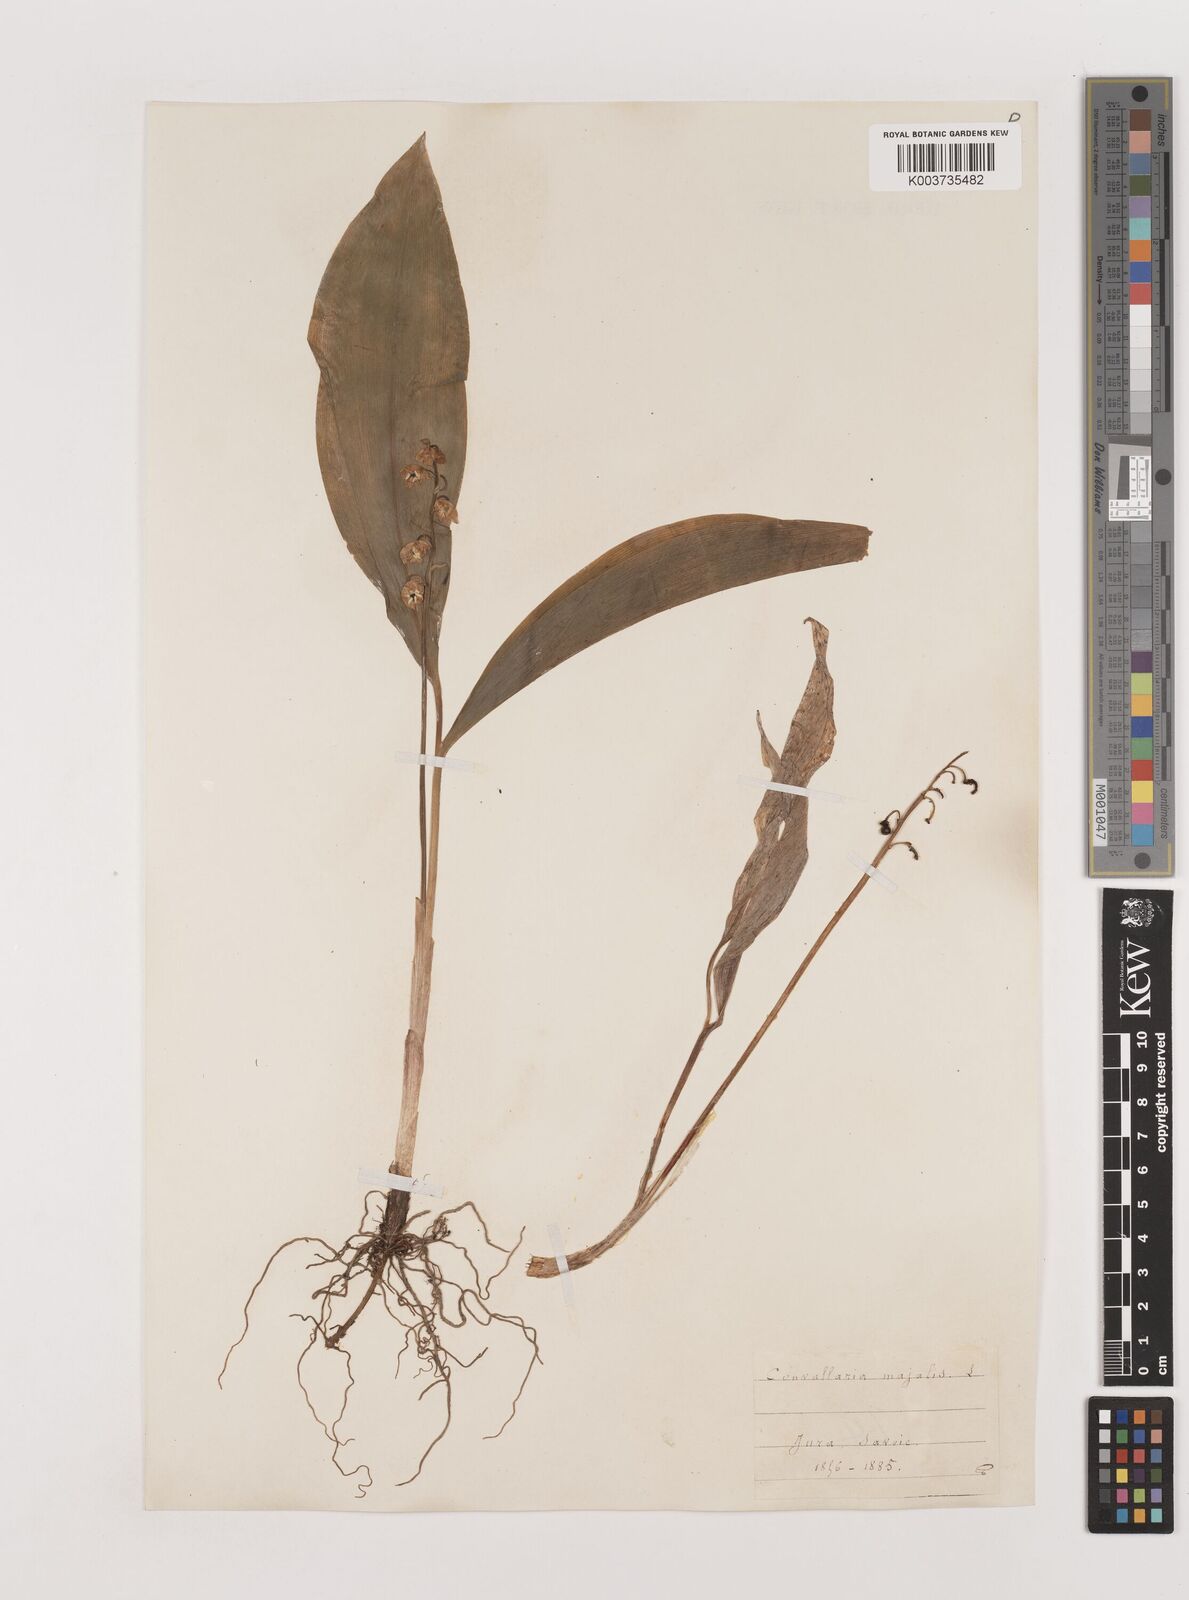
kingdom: Plantae
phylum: Tracheophyta
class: Liliopsida
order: Asparagales
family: Asparagaceae
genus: Convallaria
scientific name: Convallaria majalis
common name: Lily-of-the-valley
